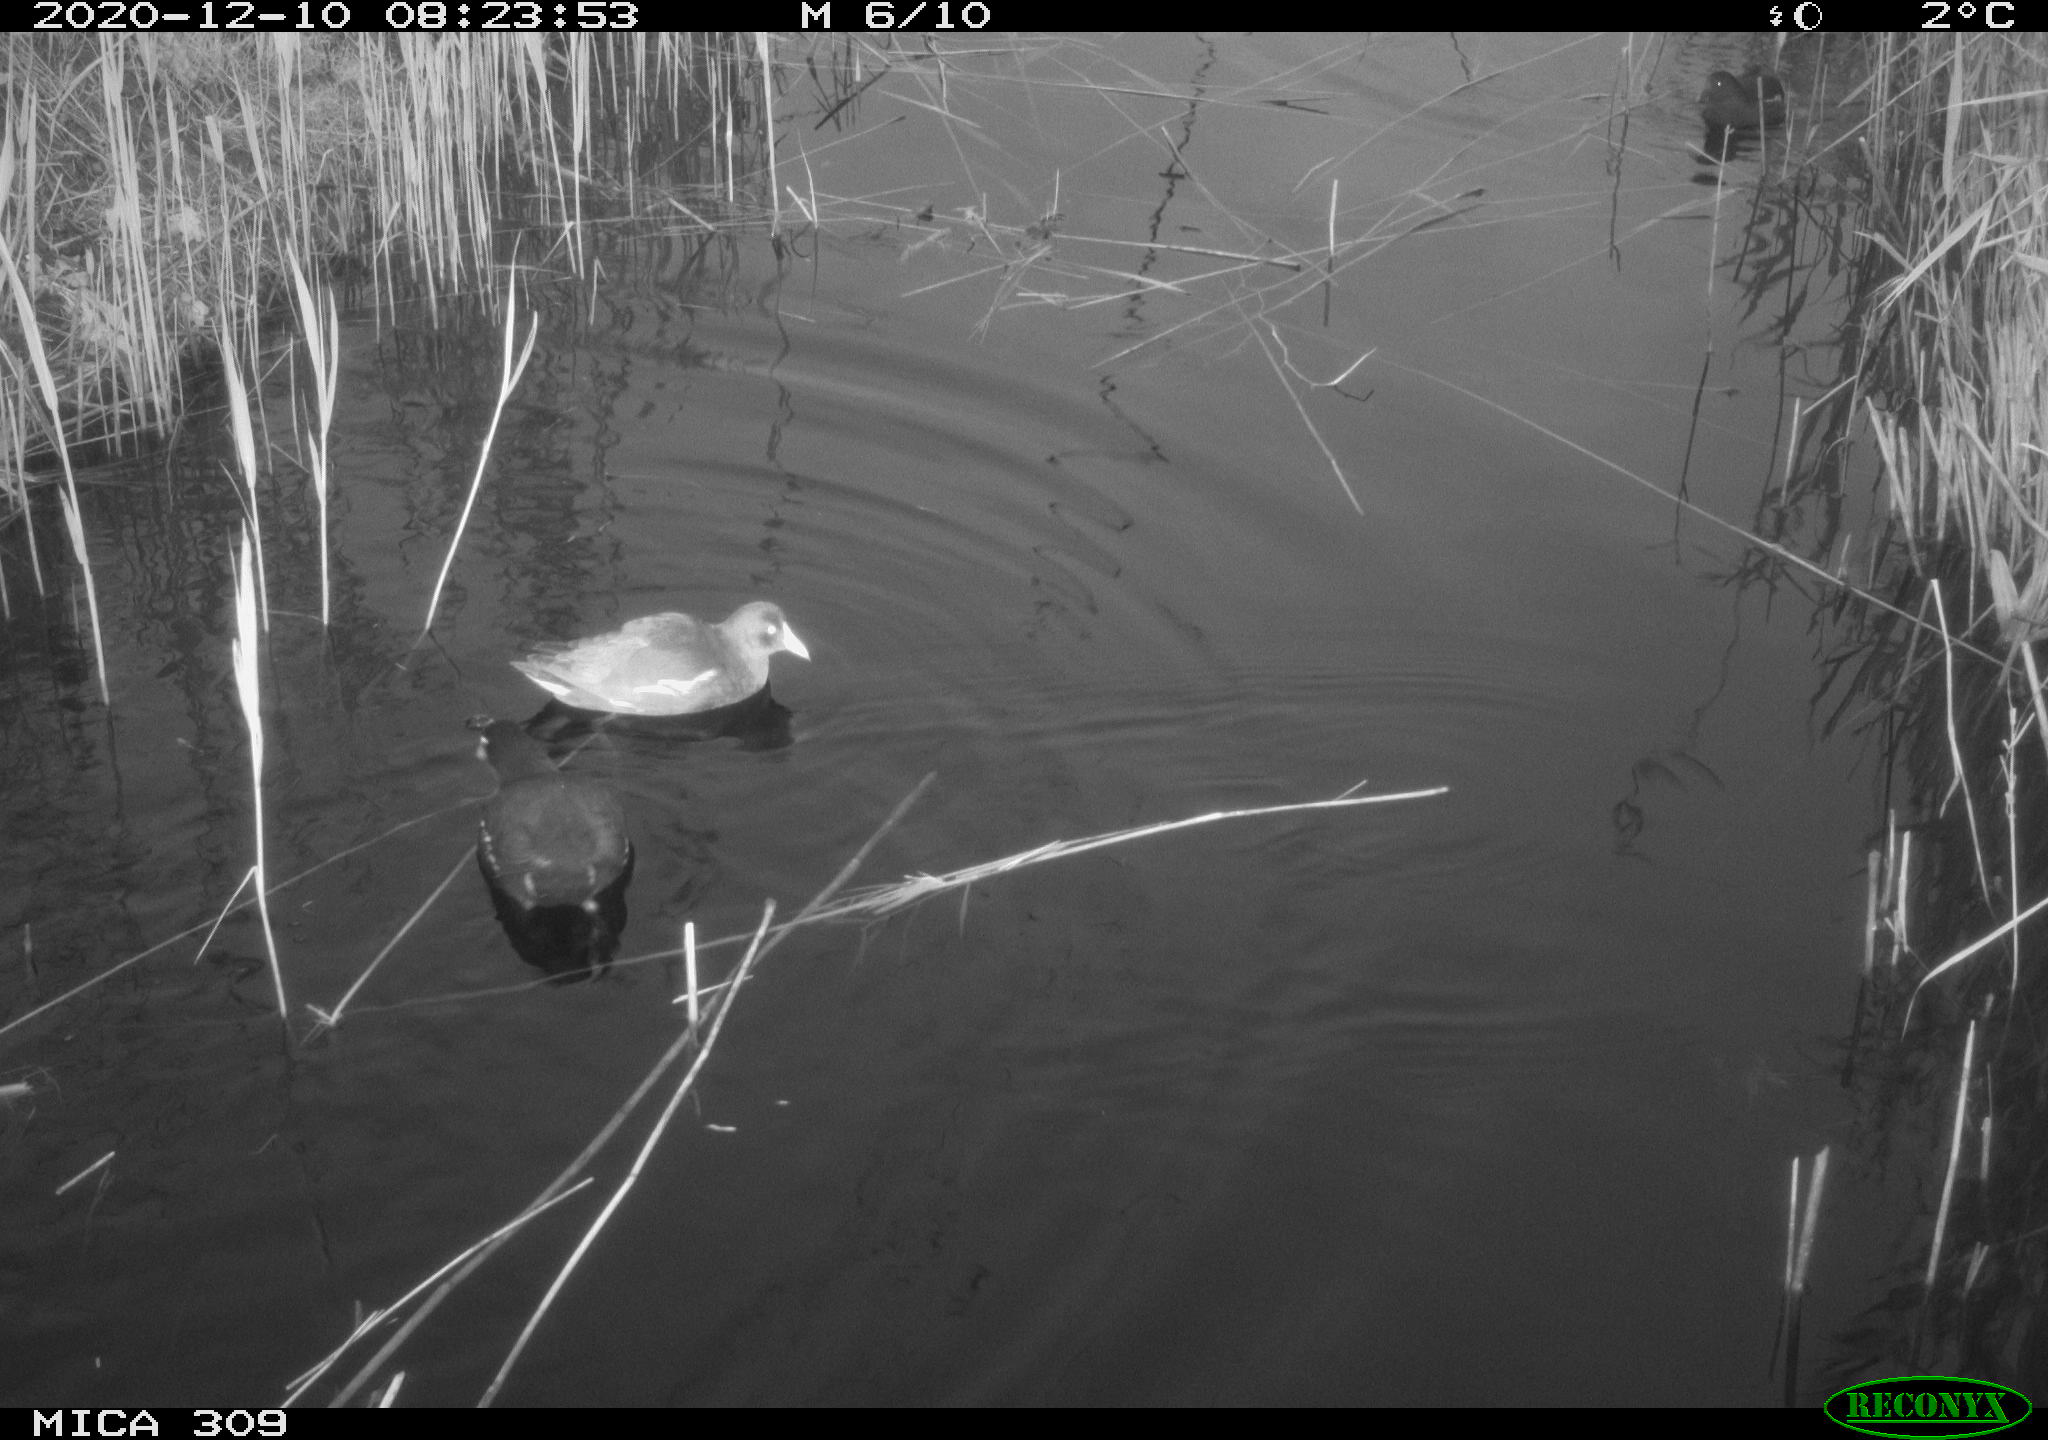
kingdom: Animalia
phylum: Chordata
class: Aves
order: Gruiformes
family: Rallidae
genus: Gallinula
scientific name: Gallinula chloropus
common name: Common moorhen
